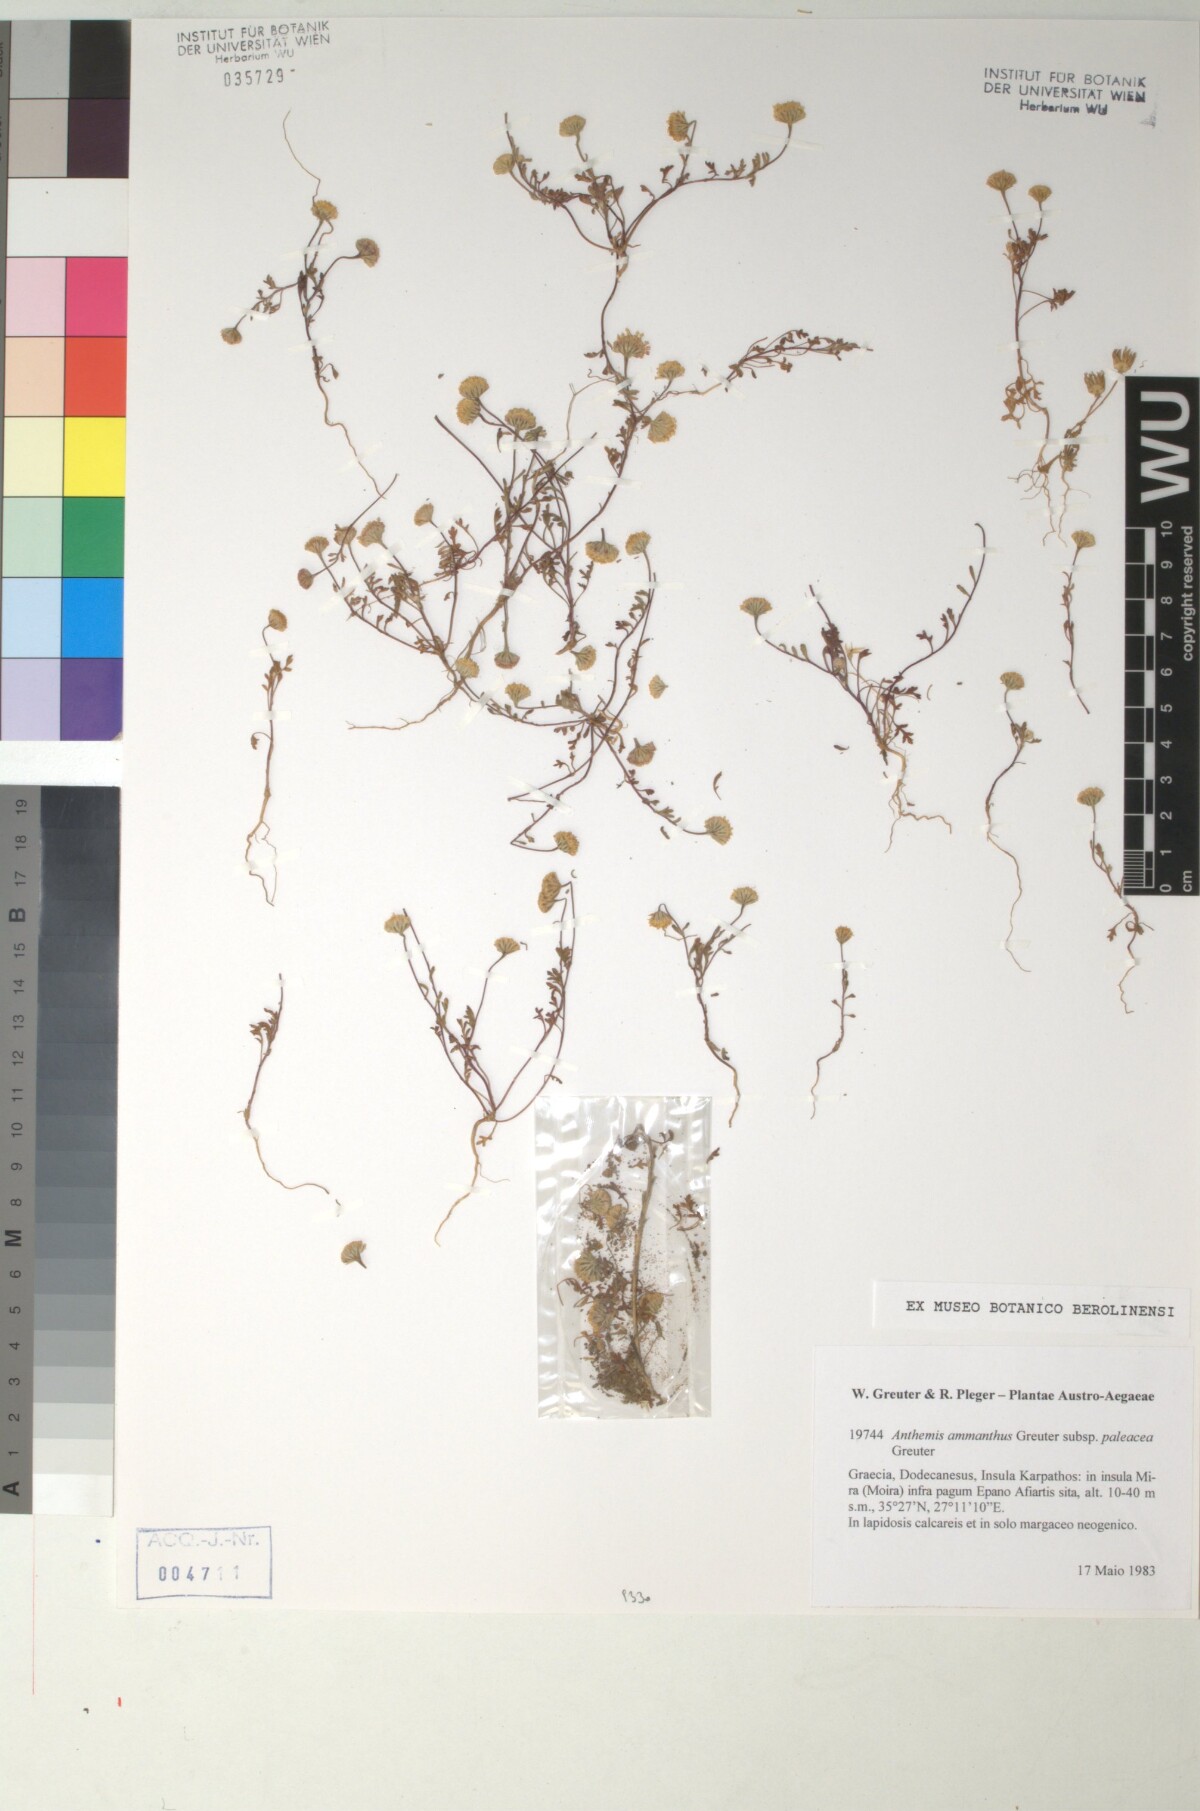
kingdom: Plantae
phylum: Tracheophyta
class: Magnoliopsida
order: Asterales
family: Asteraceae
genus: Anthemis
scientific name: Anthemis ammanthus
